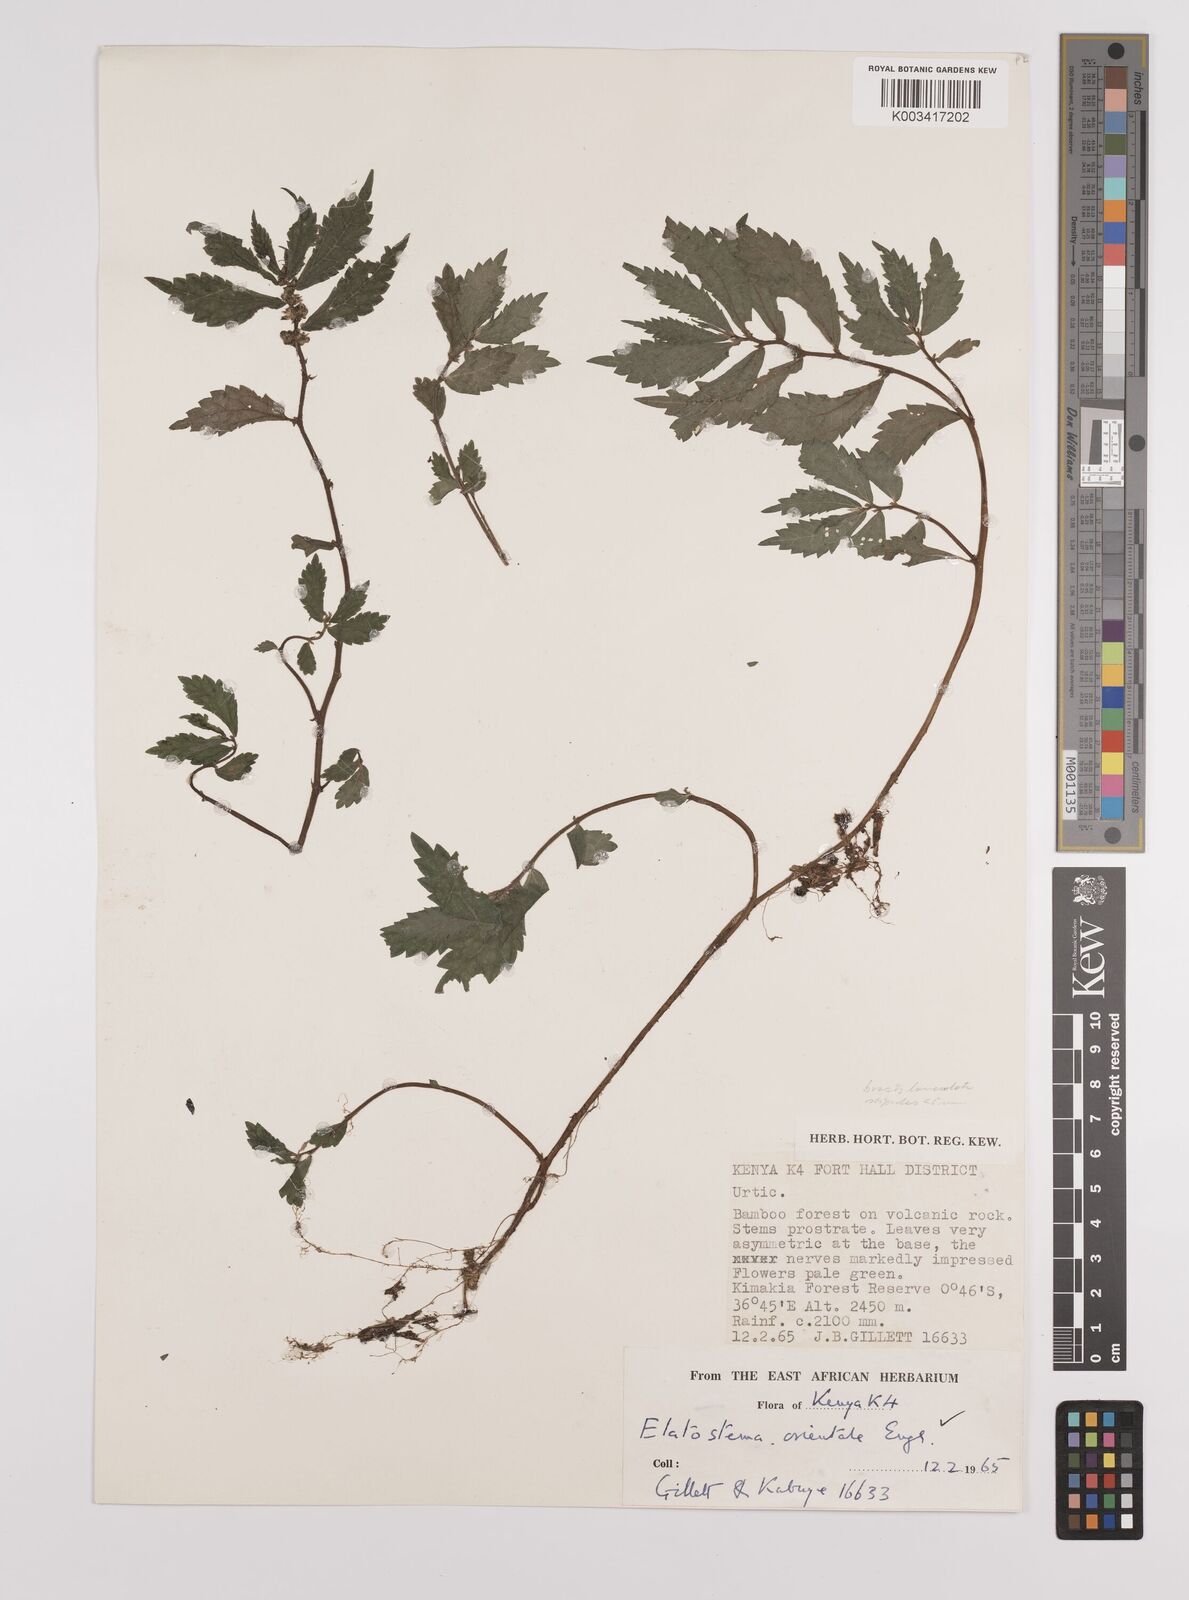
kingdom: Plantae
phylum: Tracheophyta
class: Magnoliopsida
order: Rosales
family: Urticaceae
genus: Elatostema
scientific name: Elatostema monticola
